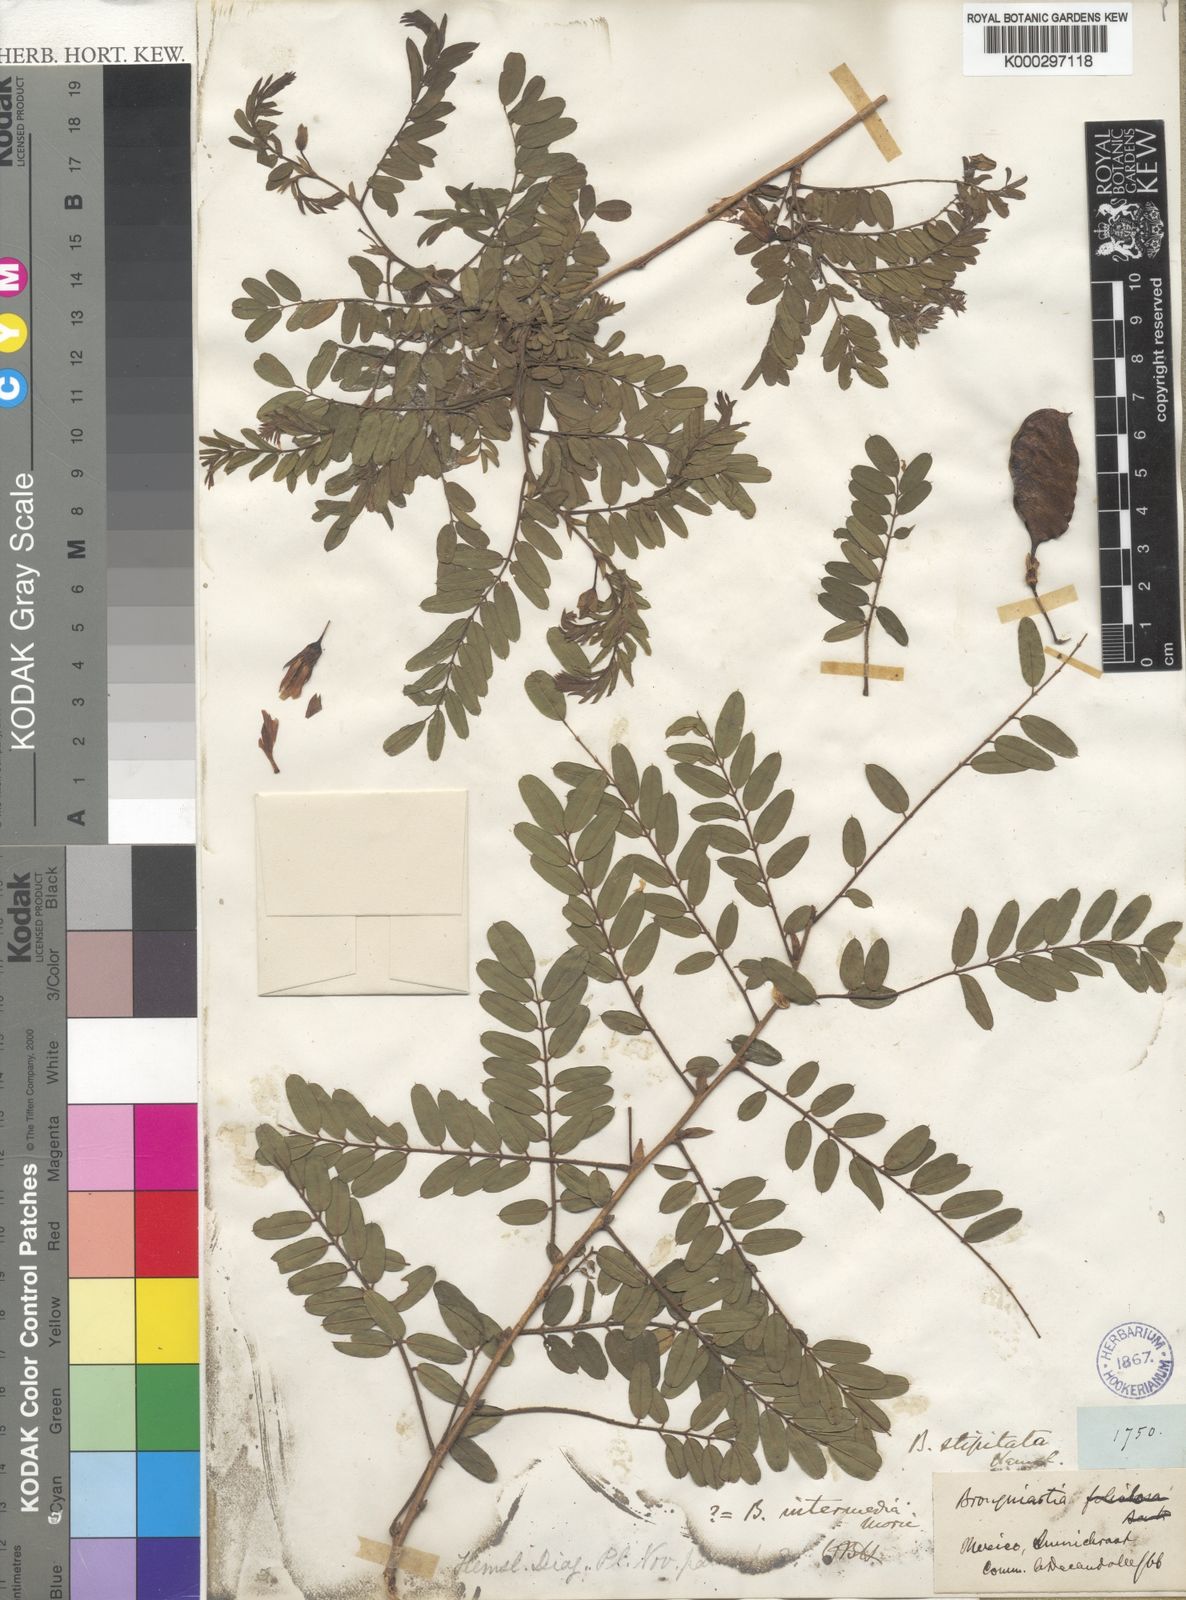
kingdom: Plantae
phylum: Tracheophyta
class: Magnoliopsida
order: Fabales
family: Fabaceae
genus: Brongniartia
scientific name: Brongniartia magnibracteata
